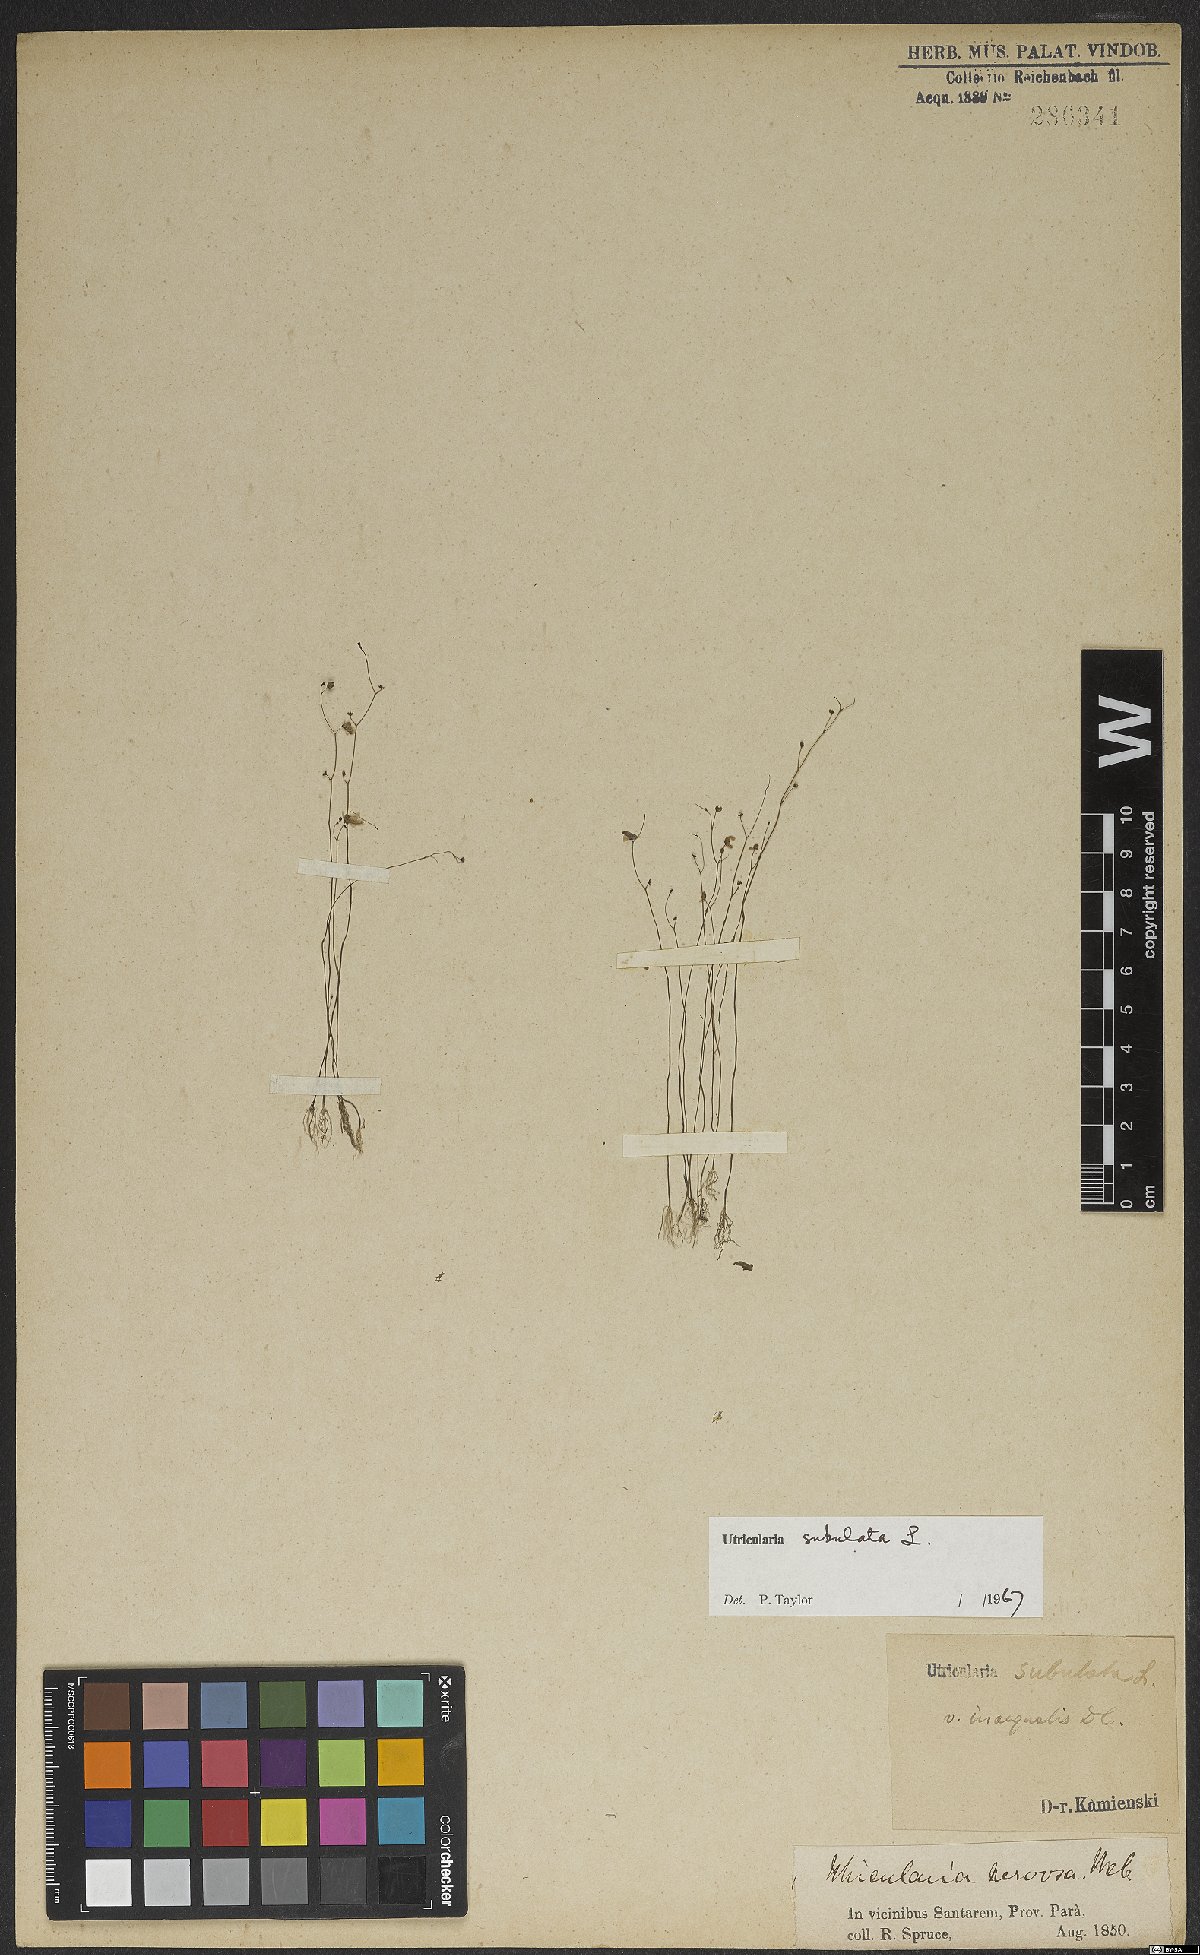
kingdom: Plantae
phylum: Tracheophyta
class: Magnoliopsida
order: Lamiales
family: Lentibulariaceae
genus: Utricularia
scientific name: Utricularia subulata
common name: Tiny bladderwort
